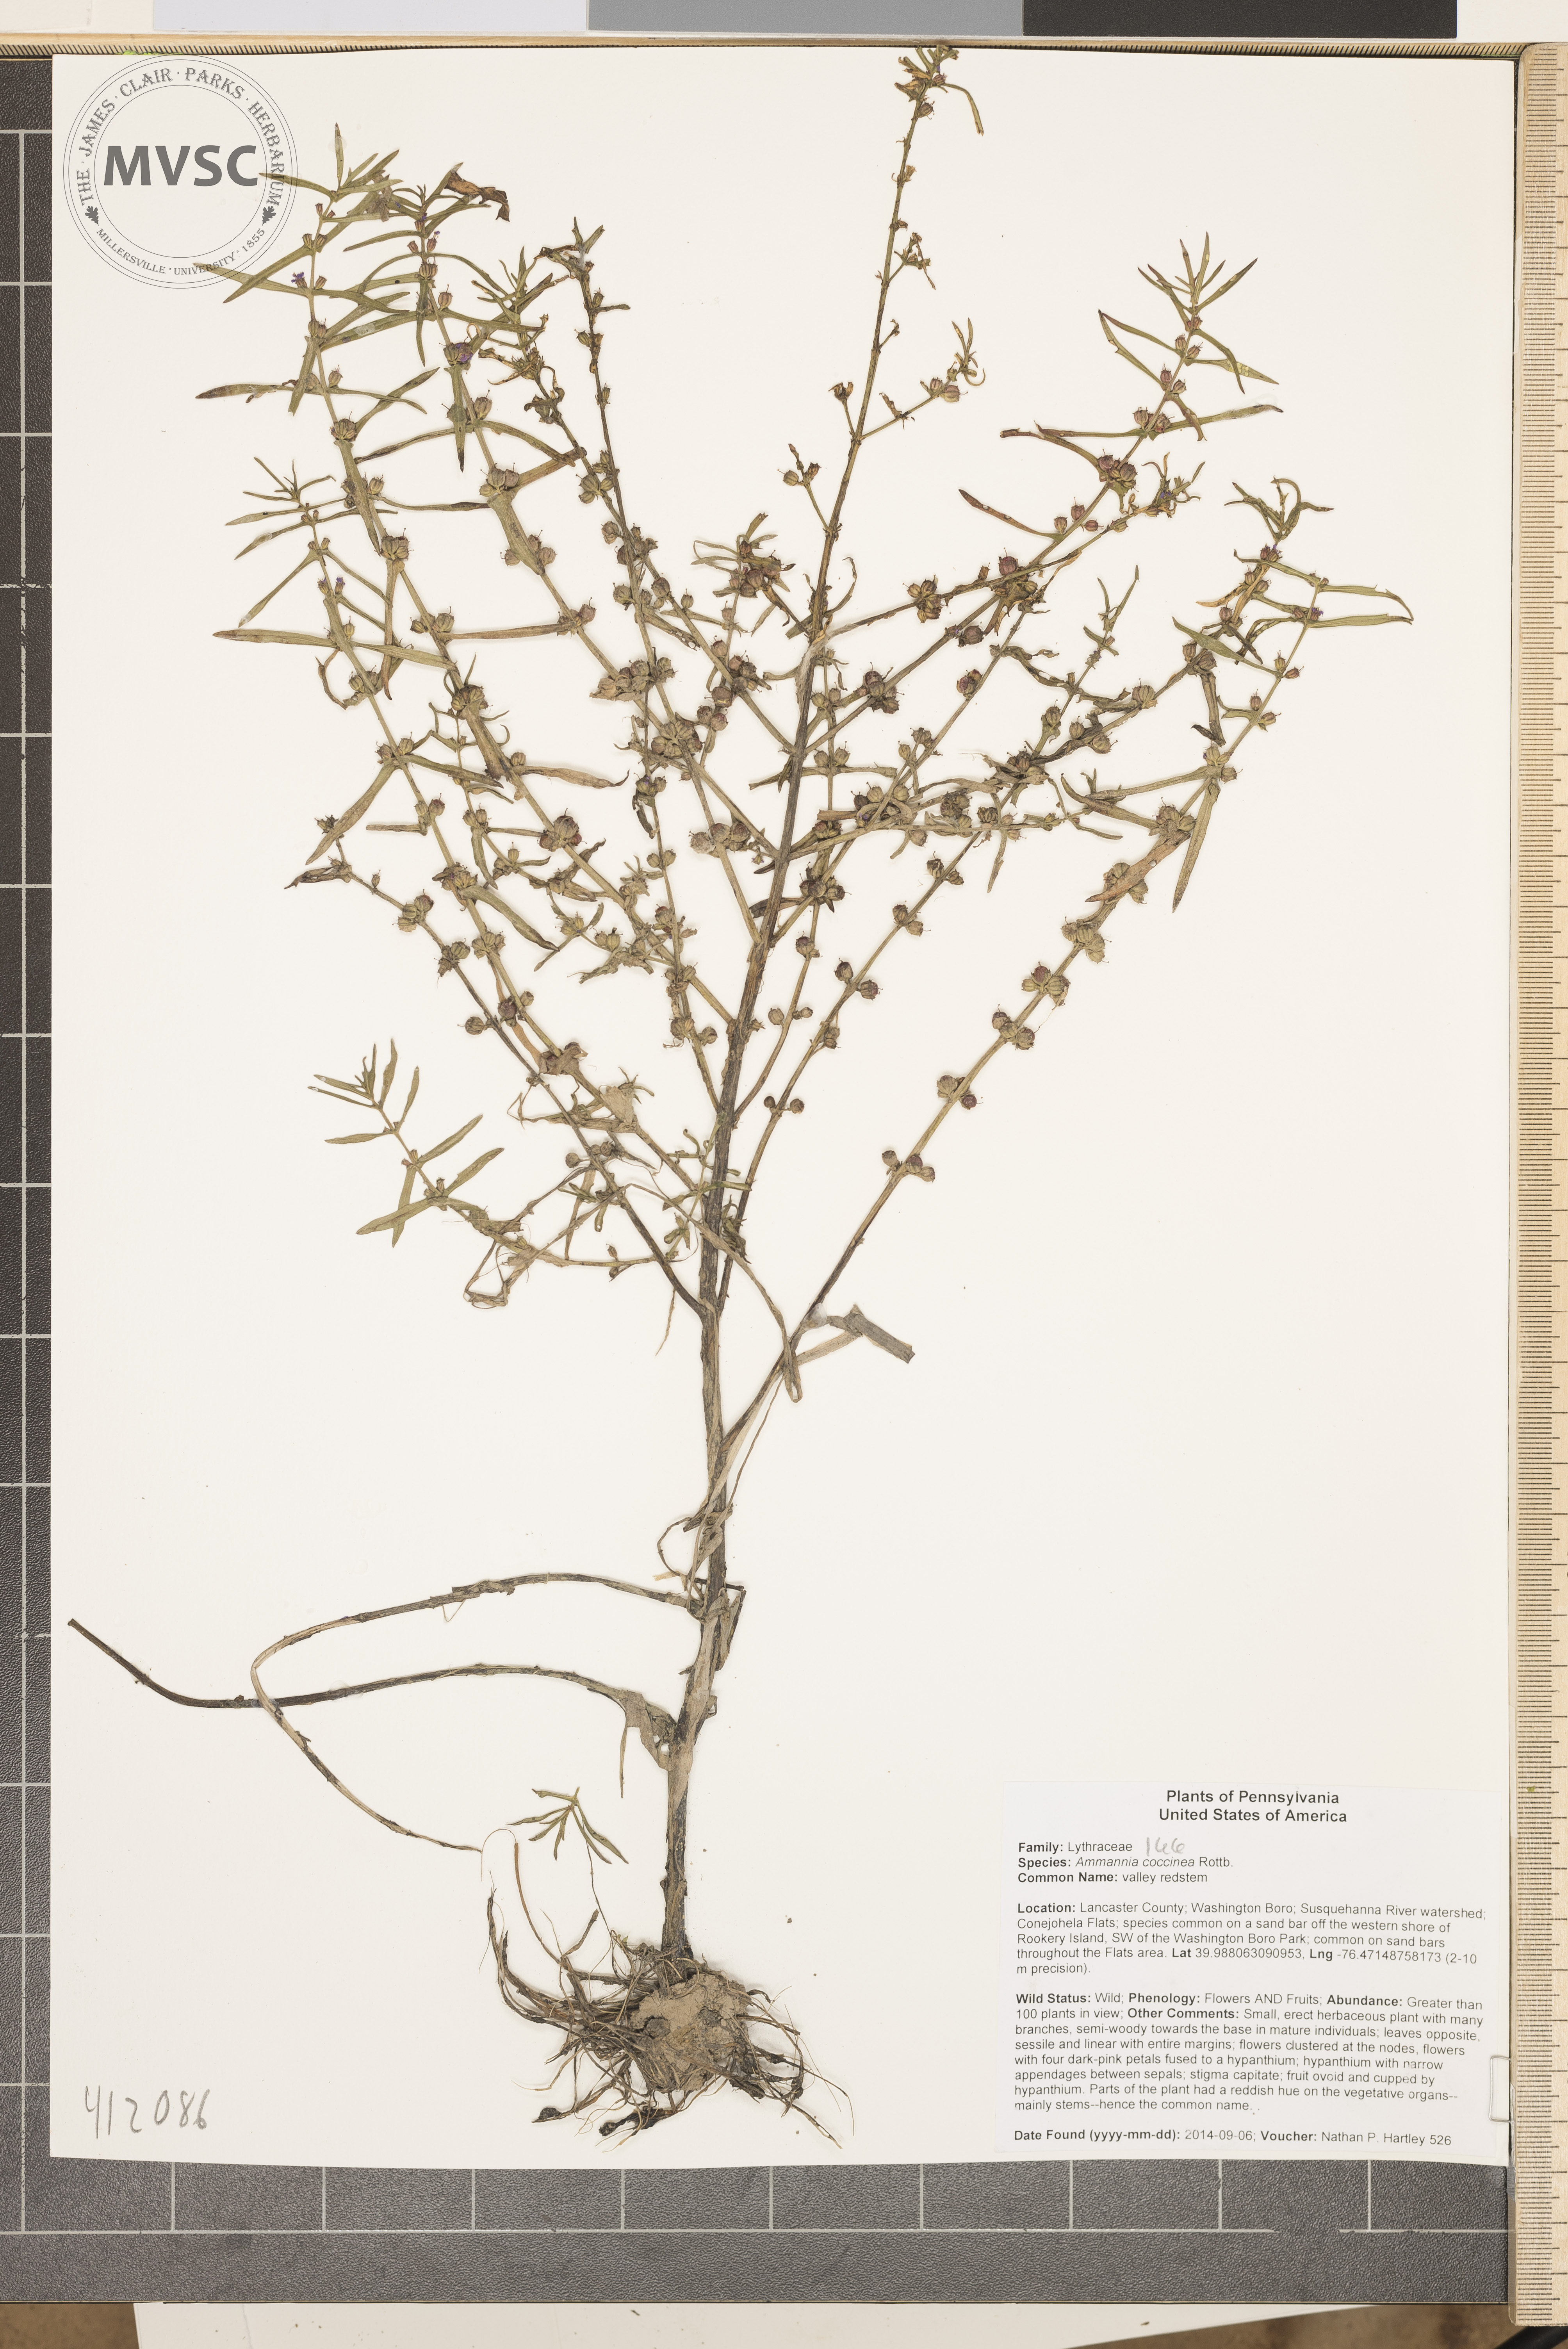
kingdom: Plantae
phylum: Tracheophyta
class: Magnoliopsida
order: Myrtales
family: Lythraceae
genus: Ammannia
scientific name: Ammannia coccinea
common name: valley redstem
